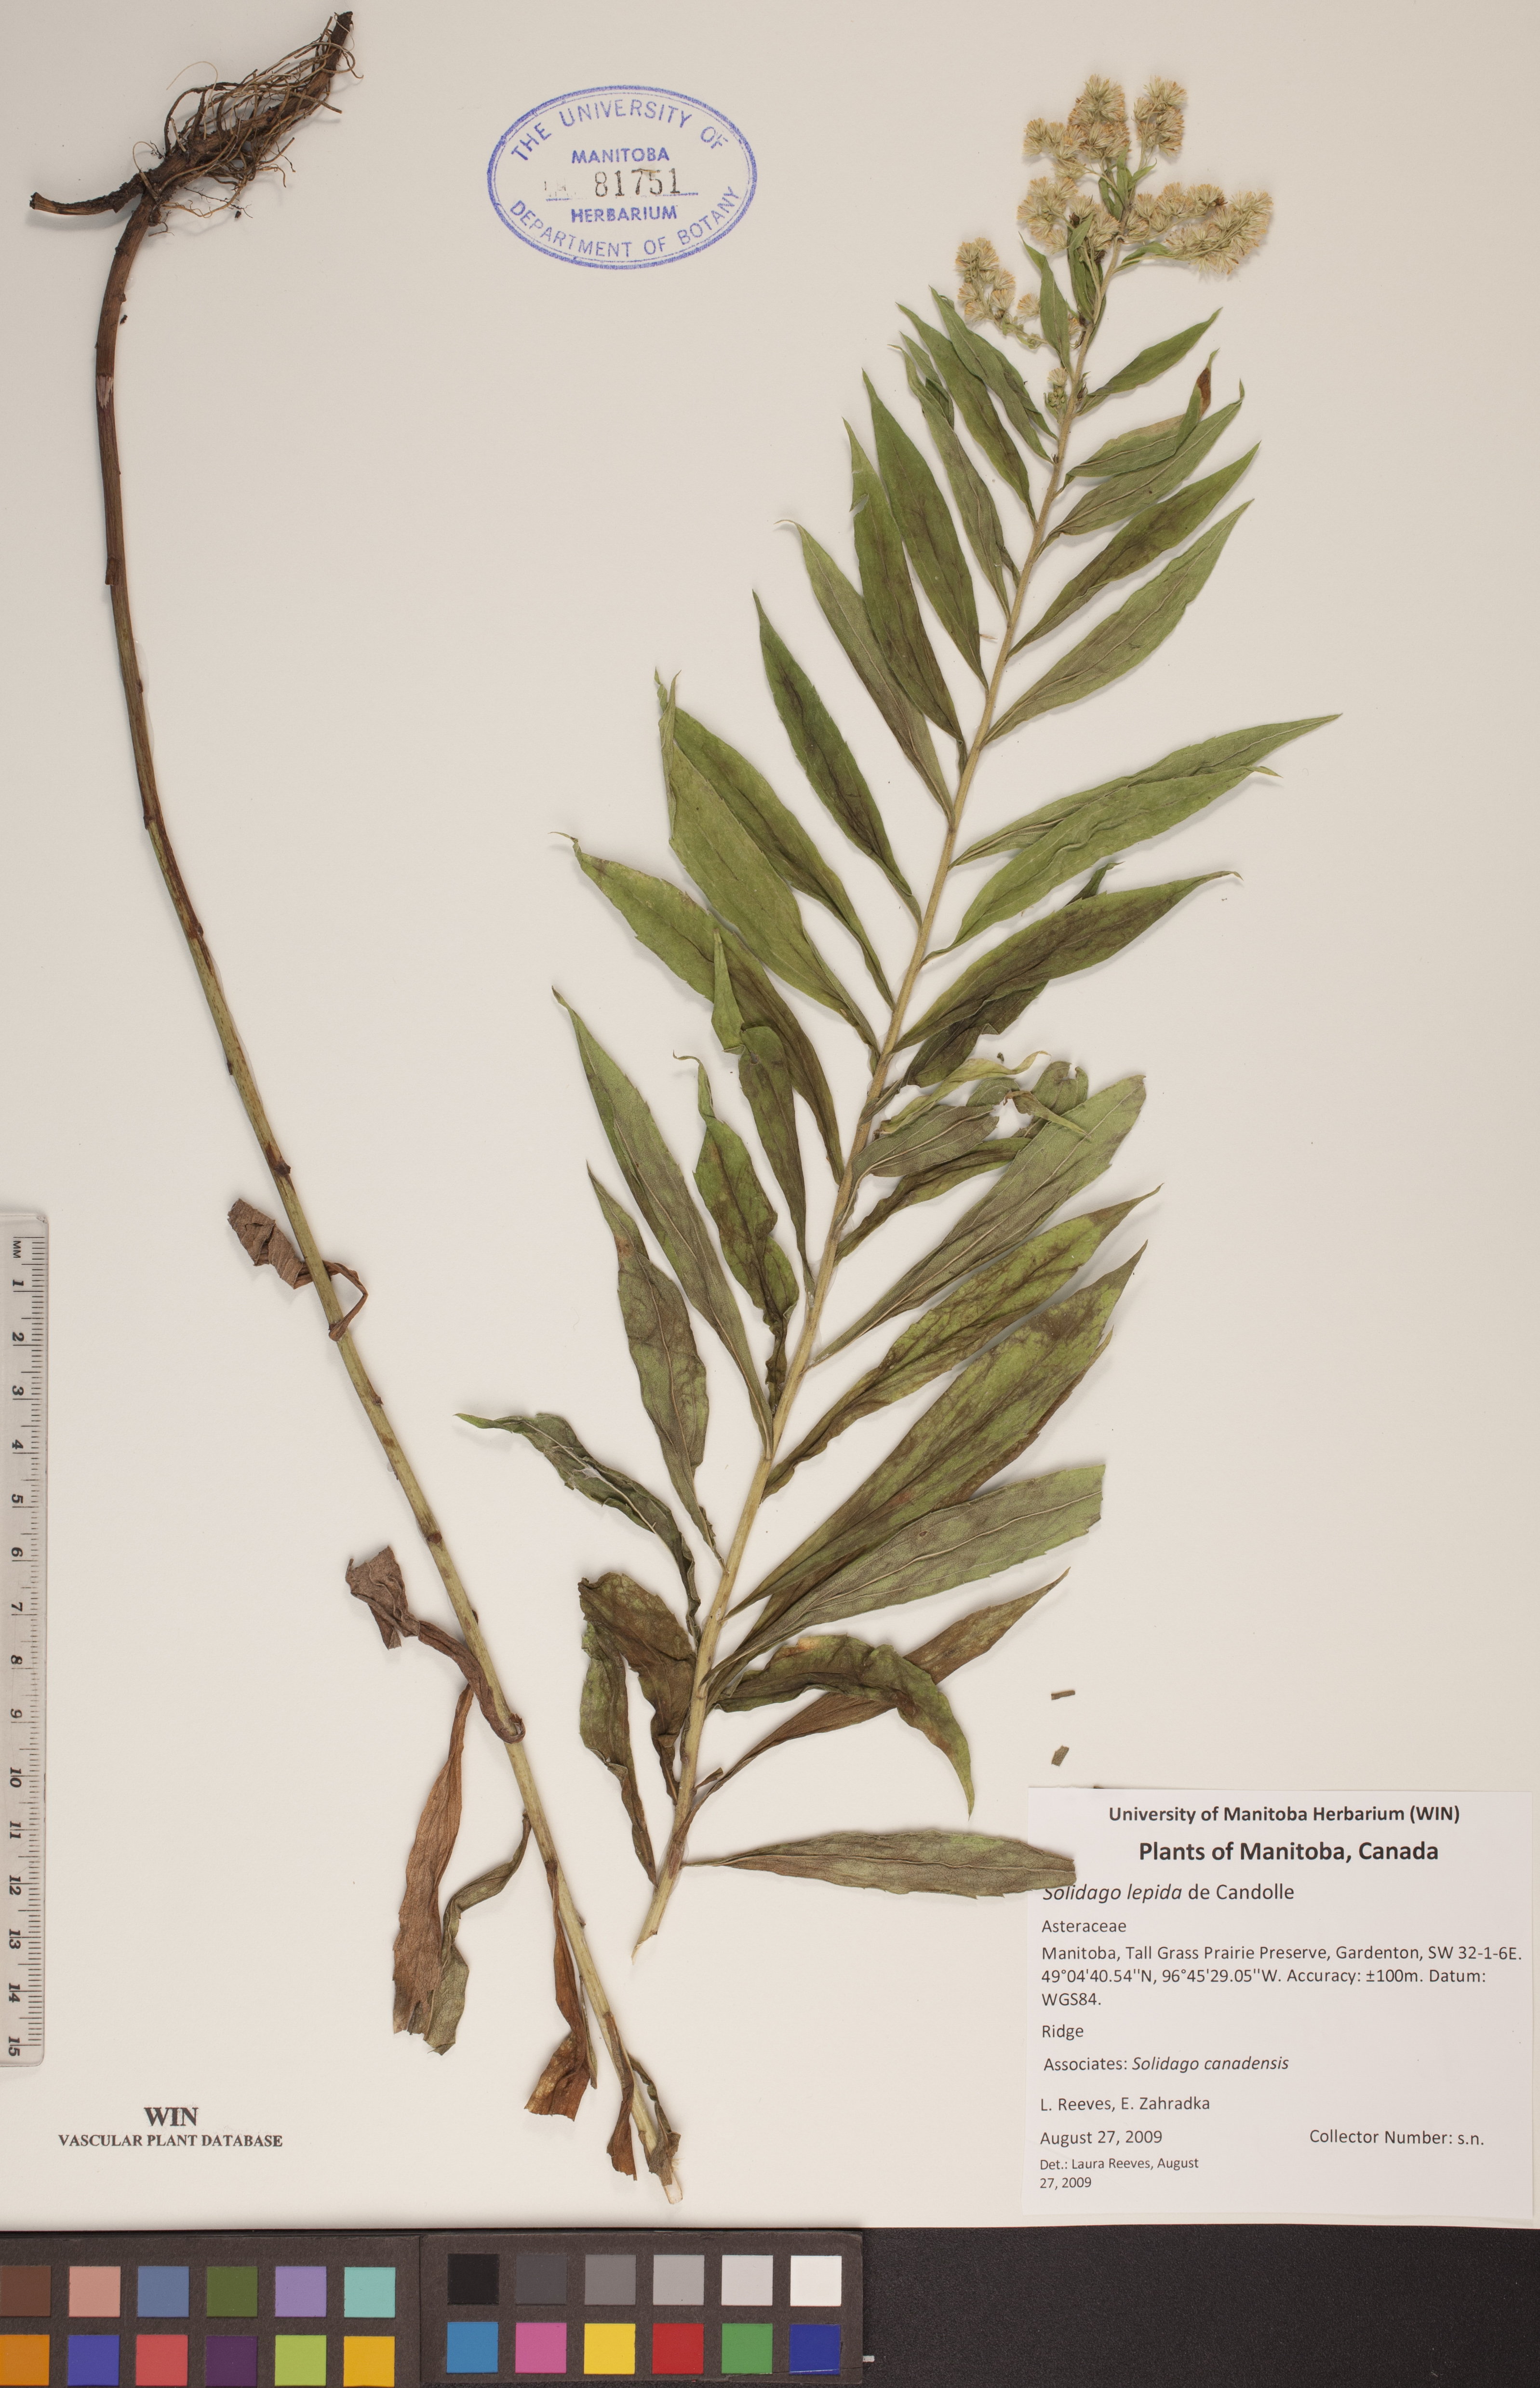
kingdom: Plantae
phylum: Tracheophyta
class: Magnoliopsida
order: Asterales
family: Asteraceae
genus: Solidago
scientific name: Solidago lepida
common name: Western canada goldenrod
